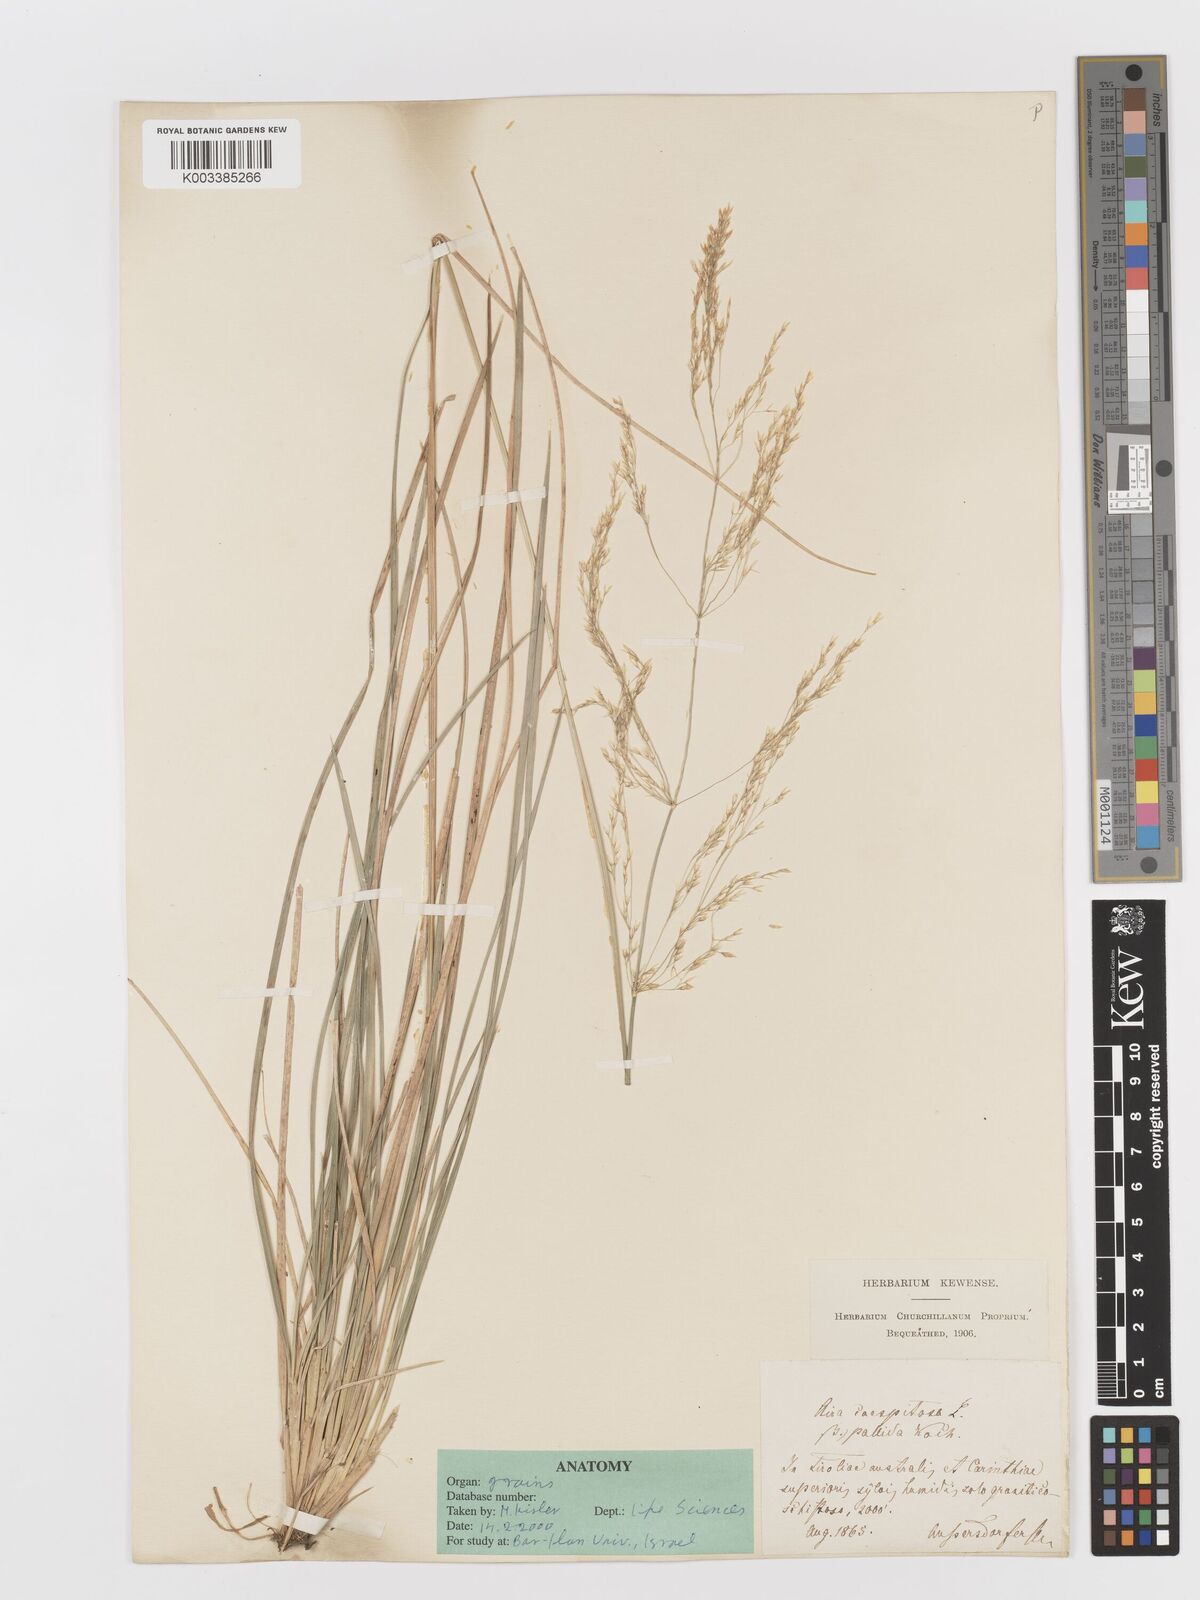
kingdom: Plantae
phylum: Tracheophyta
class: Liliopsida
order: Poales
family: Poaceae
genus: Deschampsia
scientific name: Deschampsia cespitosa
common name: Tufted hair-grass
